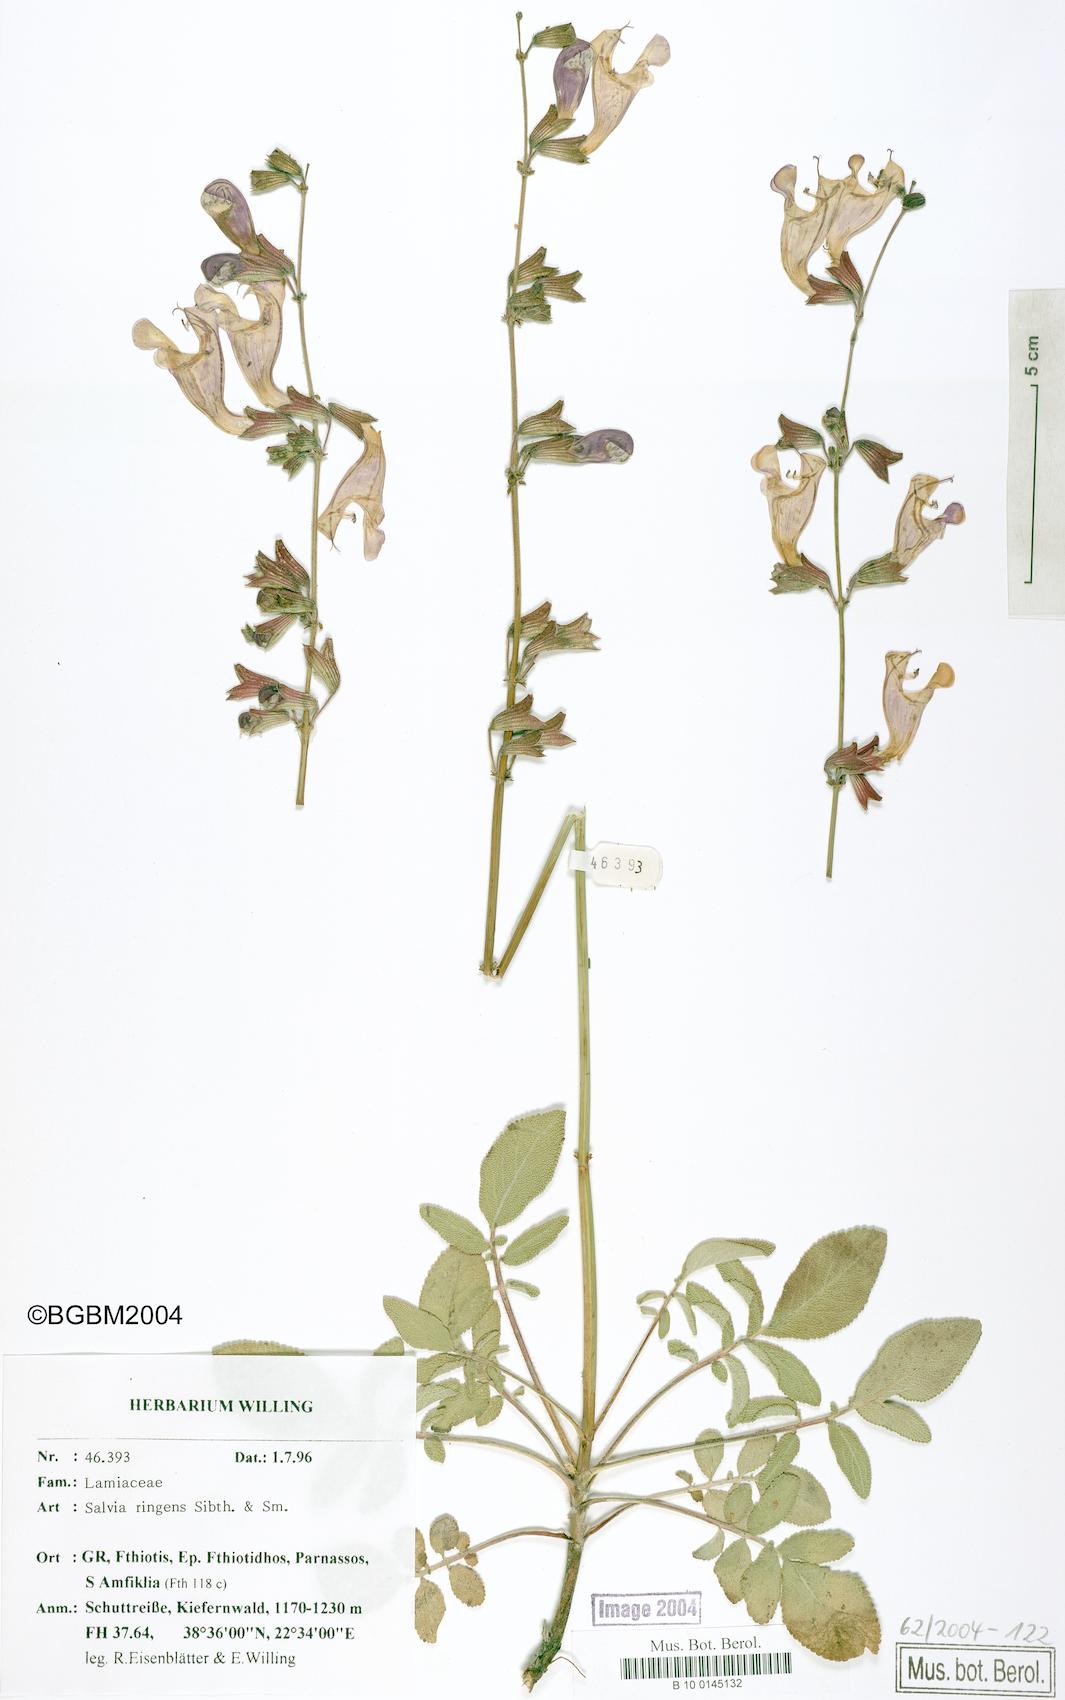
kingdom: Plantae
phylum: Tracheophyta
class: Magnoliopsida
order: Lamiales
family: Lamiaceae
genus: Salvia
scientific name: Salvia ringens
